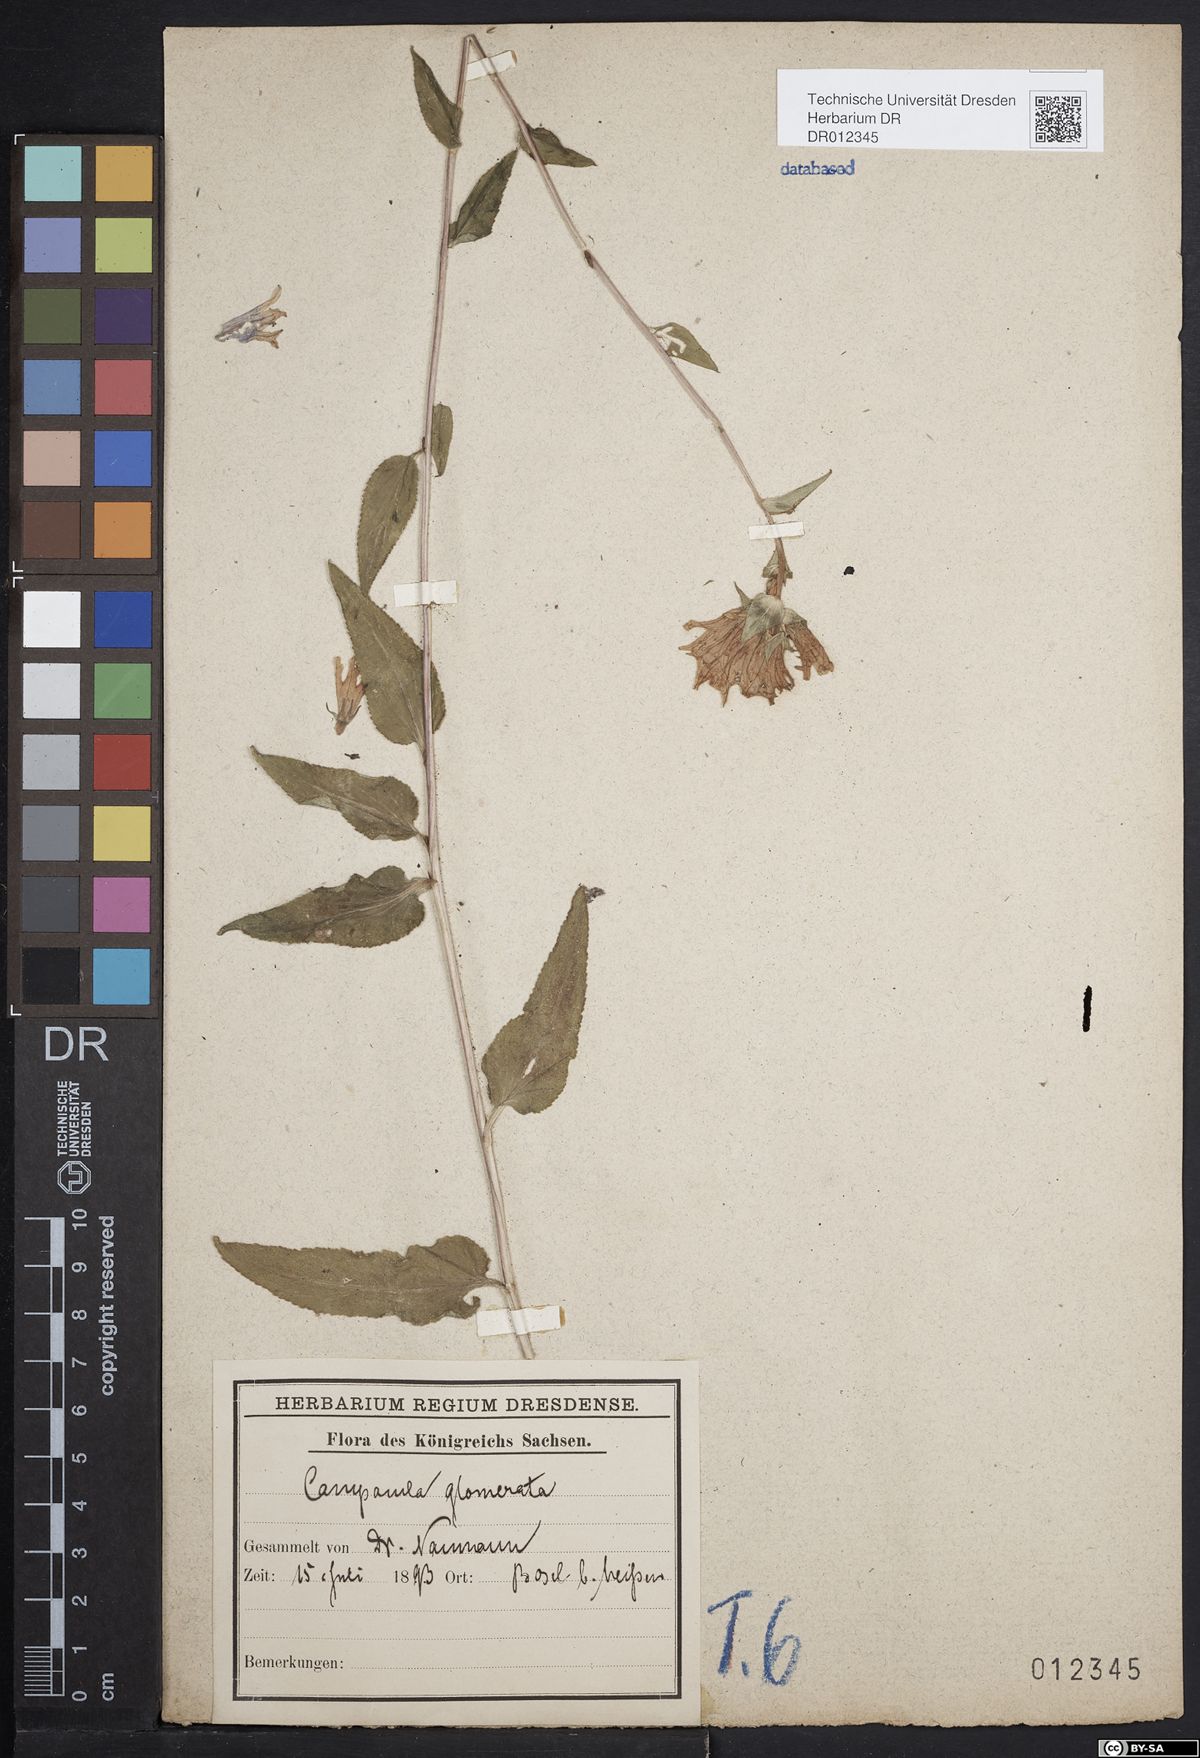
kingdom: Plantae
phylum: Tracheophyta
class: Magnoliopsida
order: Asterales
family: Campanulaceae
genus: Campanula
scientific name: Campanula glomerata
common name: Clustered bellflower
